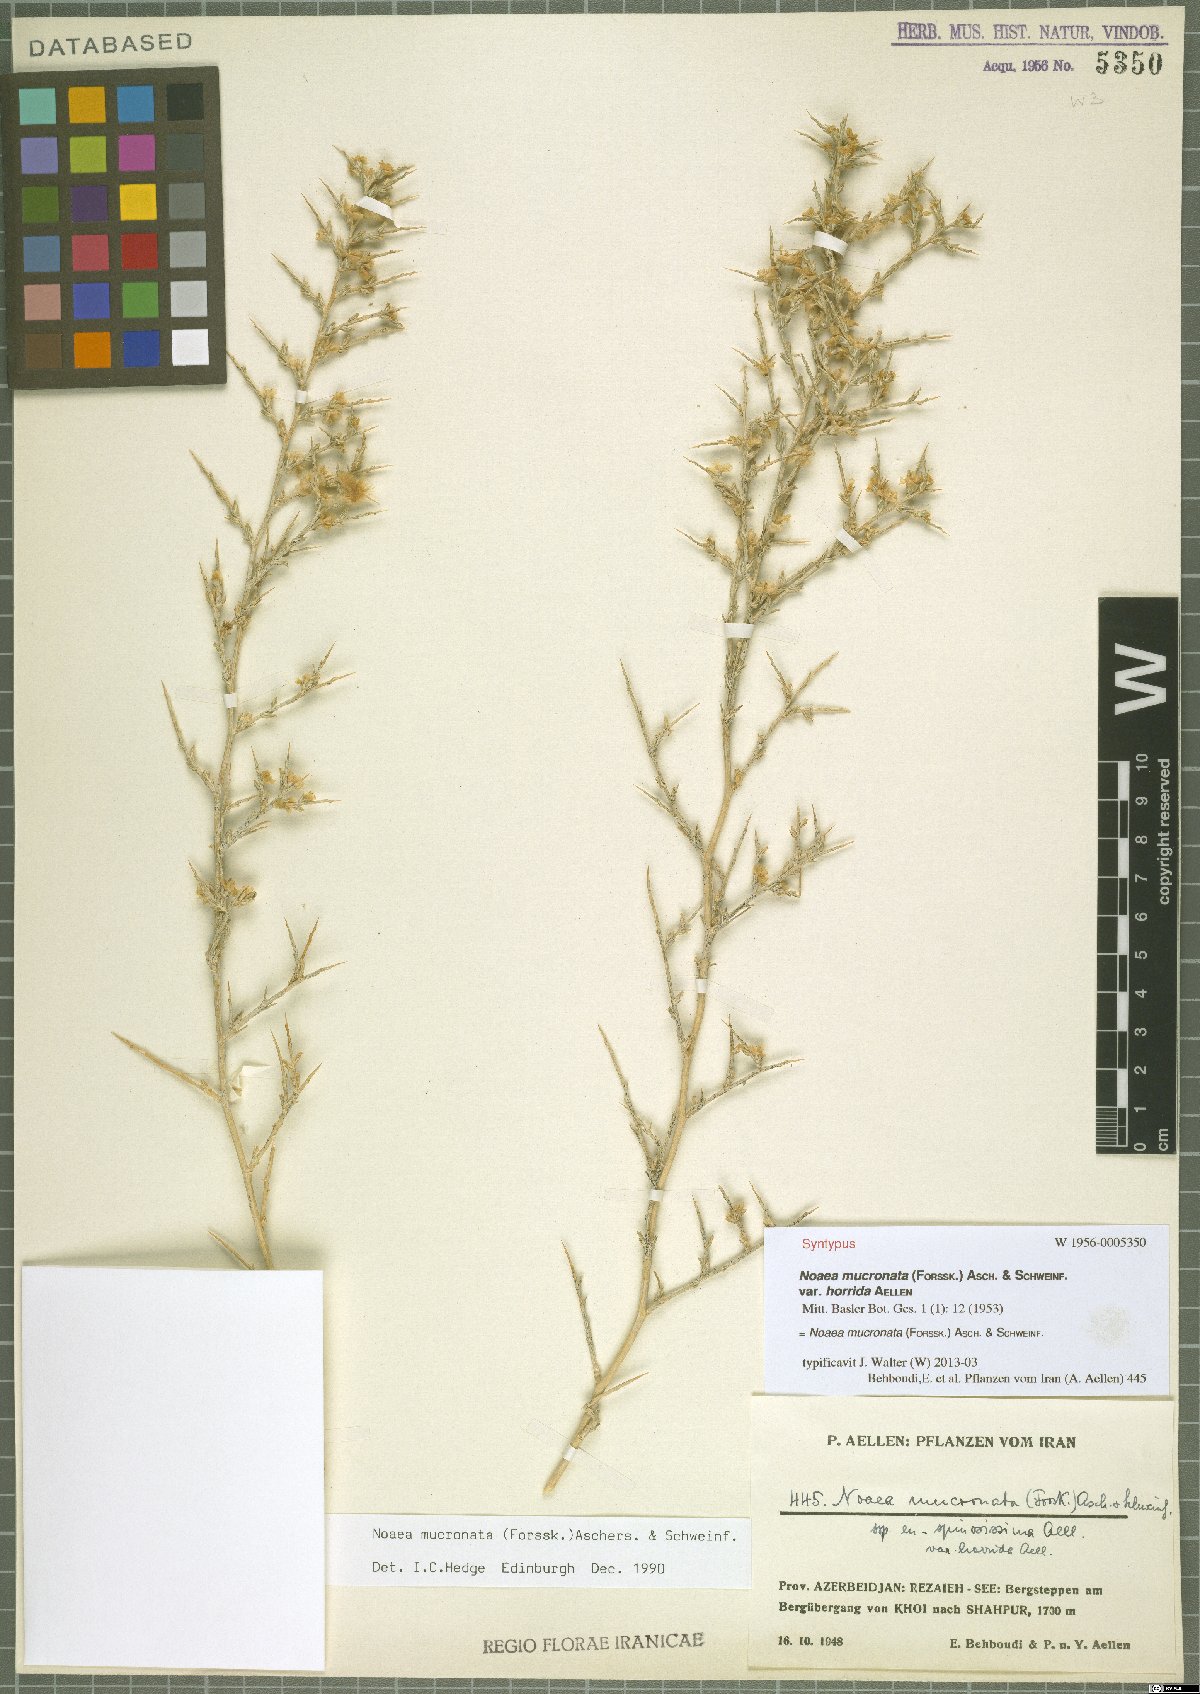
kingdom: Plantae
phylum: Tracheophyta
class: Magnoliopsida
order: Caryophyllales
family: Amaranthaceae
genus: Noaea
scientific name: Noaea mucronata
